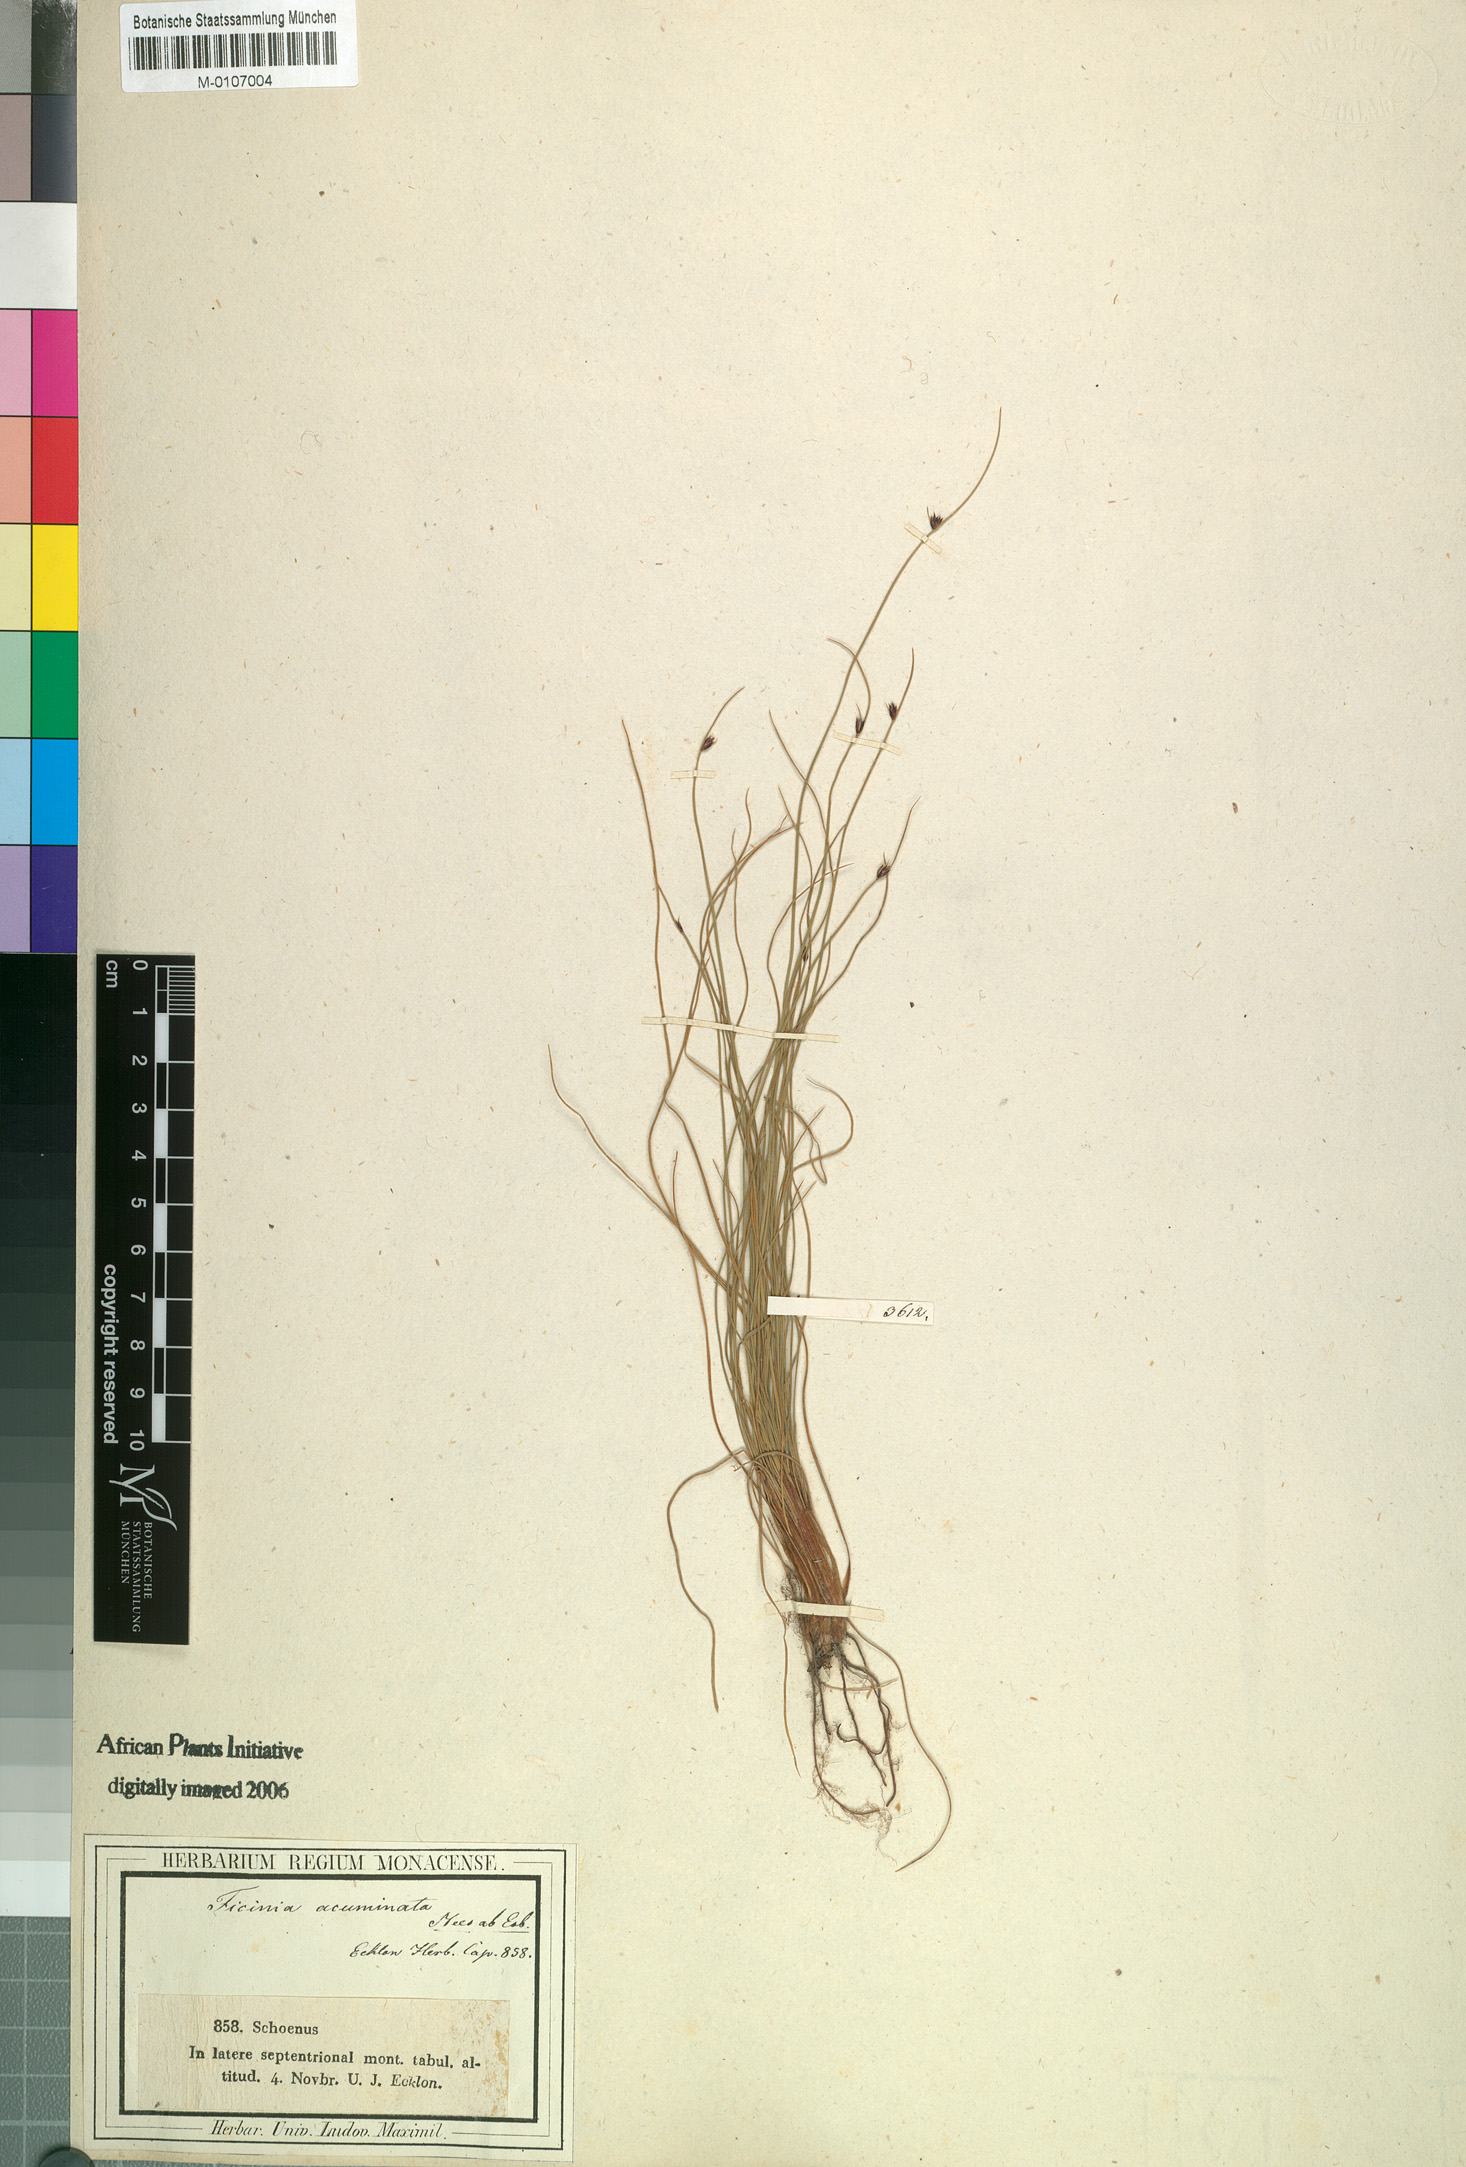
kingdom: Plantae
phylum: Tracheophyta
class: Liliopsida
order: Poales
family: Cyperaceae
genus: Ficinia
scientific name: Ficinia acuminata
